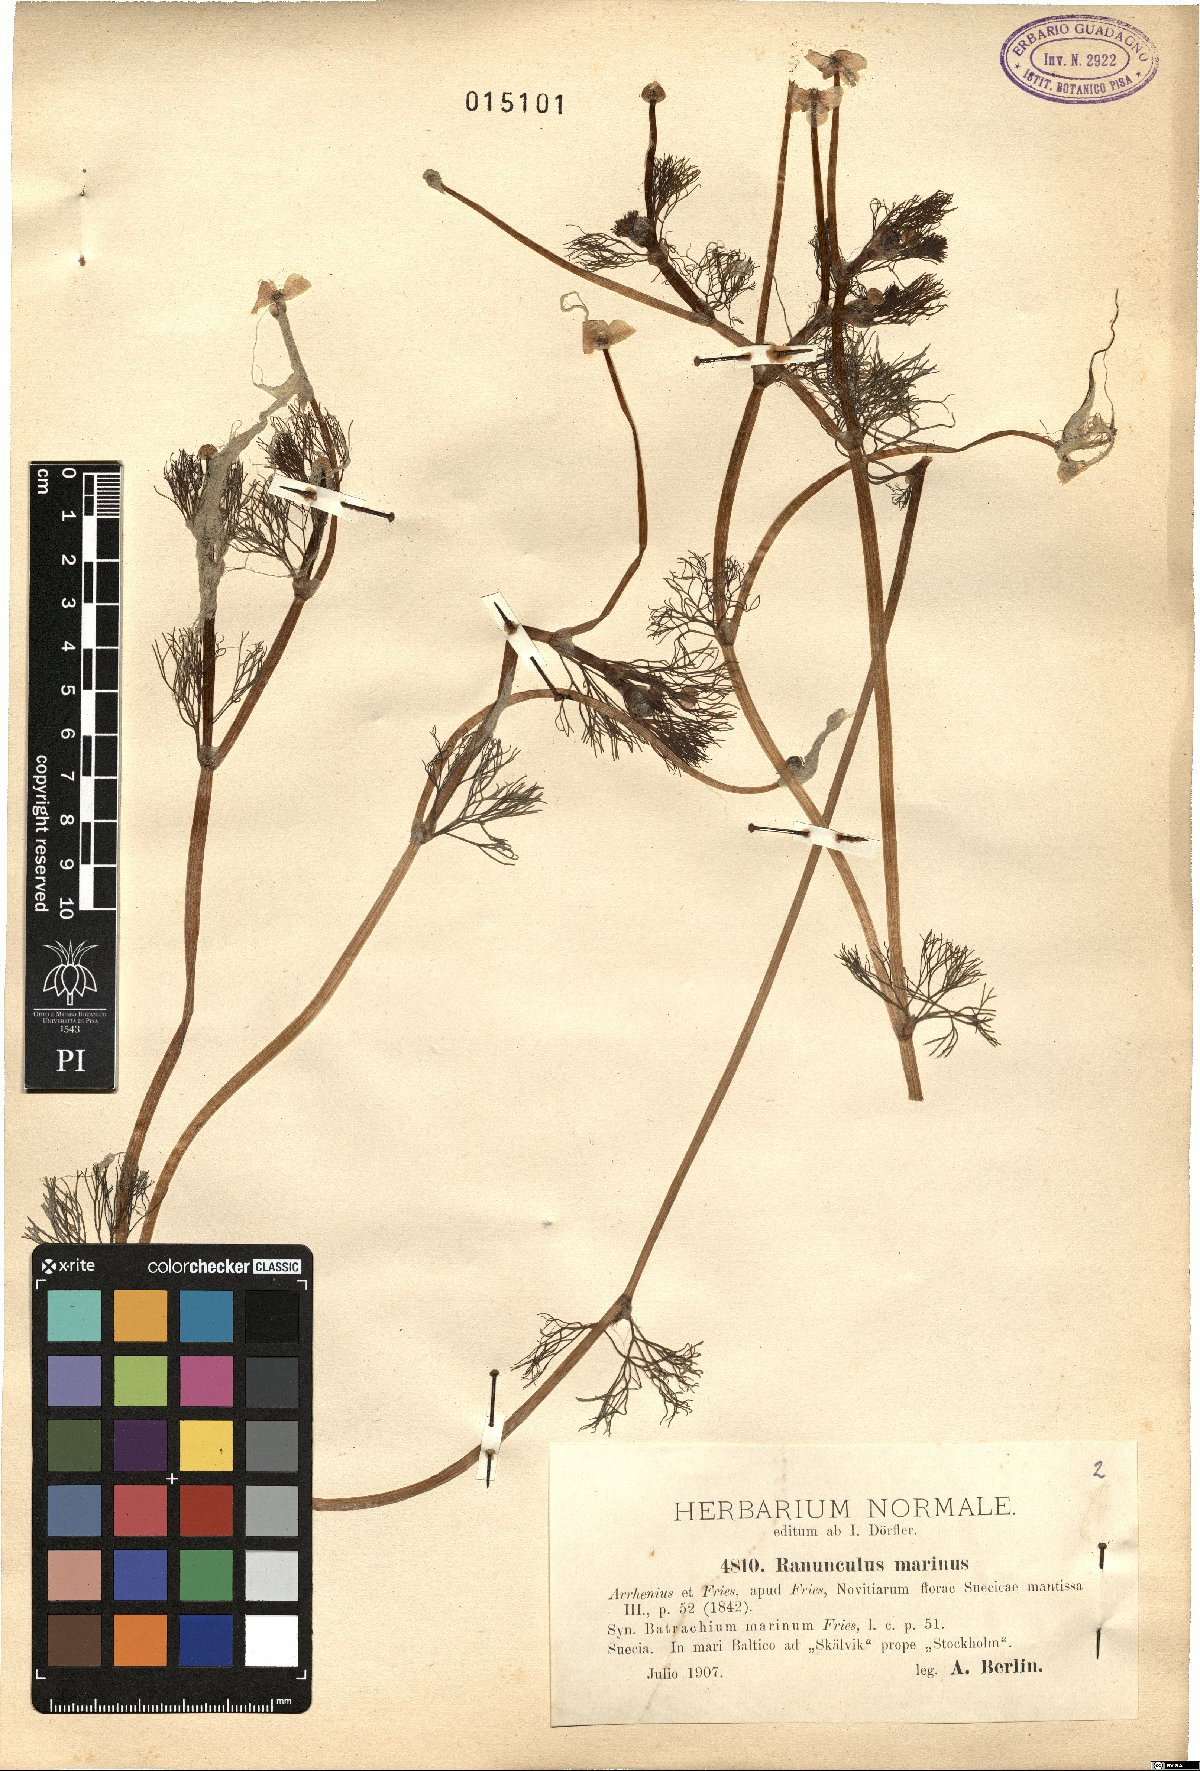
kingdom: Plantae
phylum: Tracheophyta
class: Magnoliopsida
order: Ranunculales
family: Ranunculaceae
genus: Ranunculus
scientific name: Ranunculus peltatus
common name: Pond water-crowfoot
